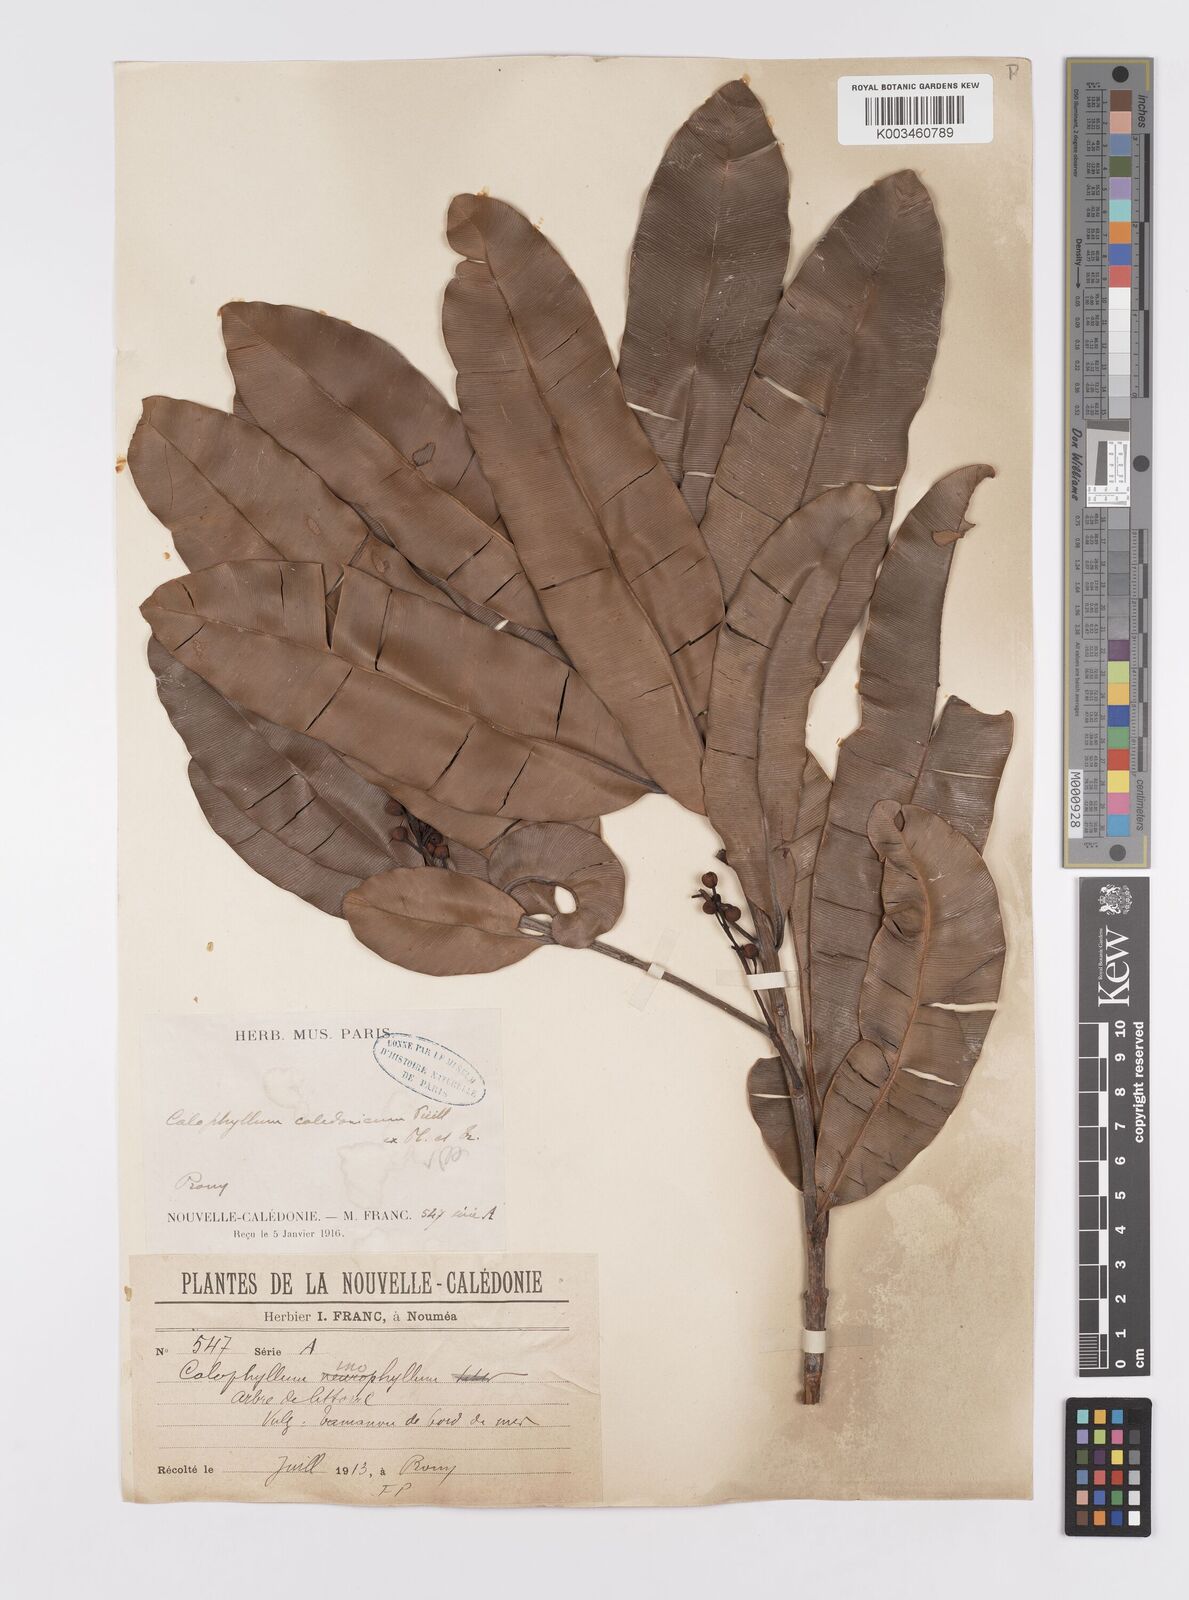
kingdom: Plantae
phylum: Tracheophyta
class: Magnoliopsida
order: Malpighiales
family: Calophyllaceae
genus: Calophyllum
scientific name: Calophyllum caledonicum
